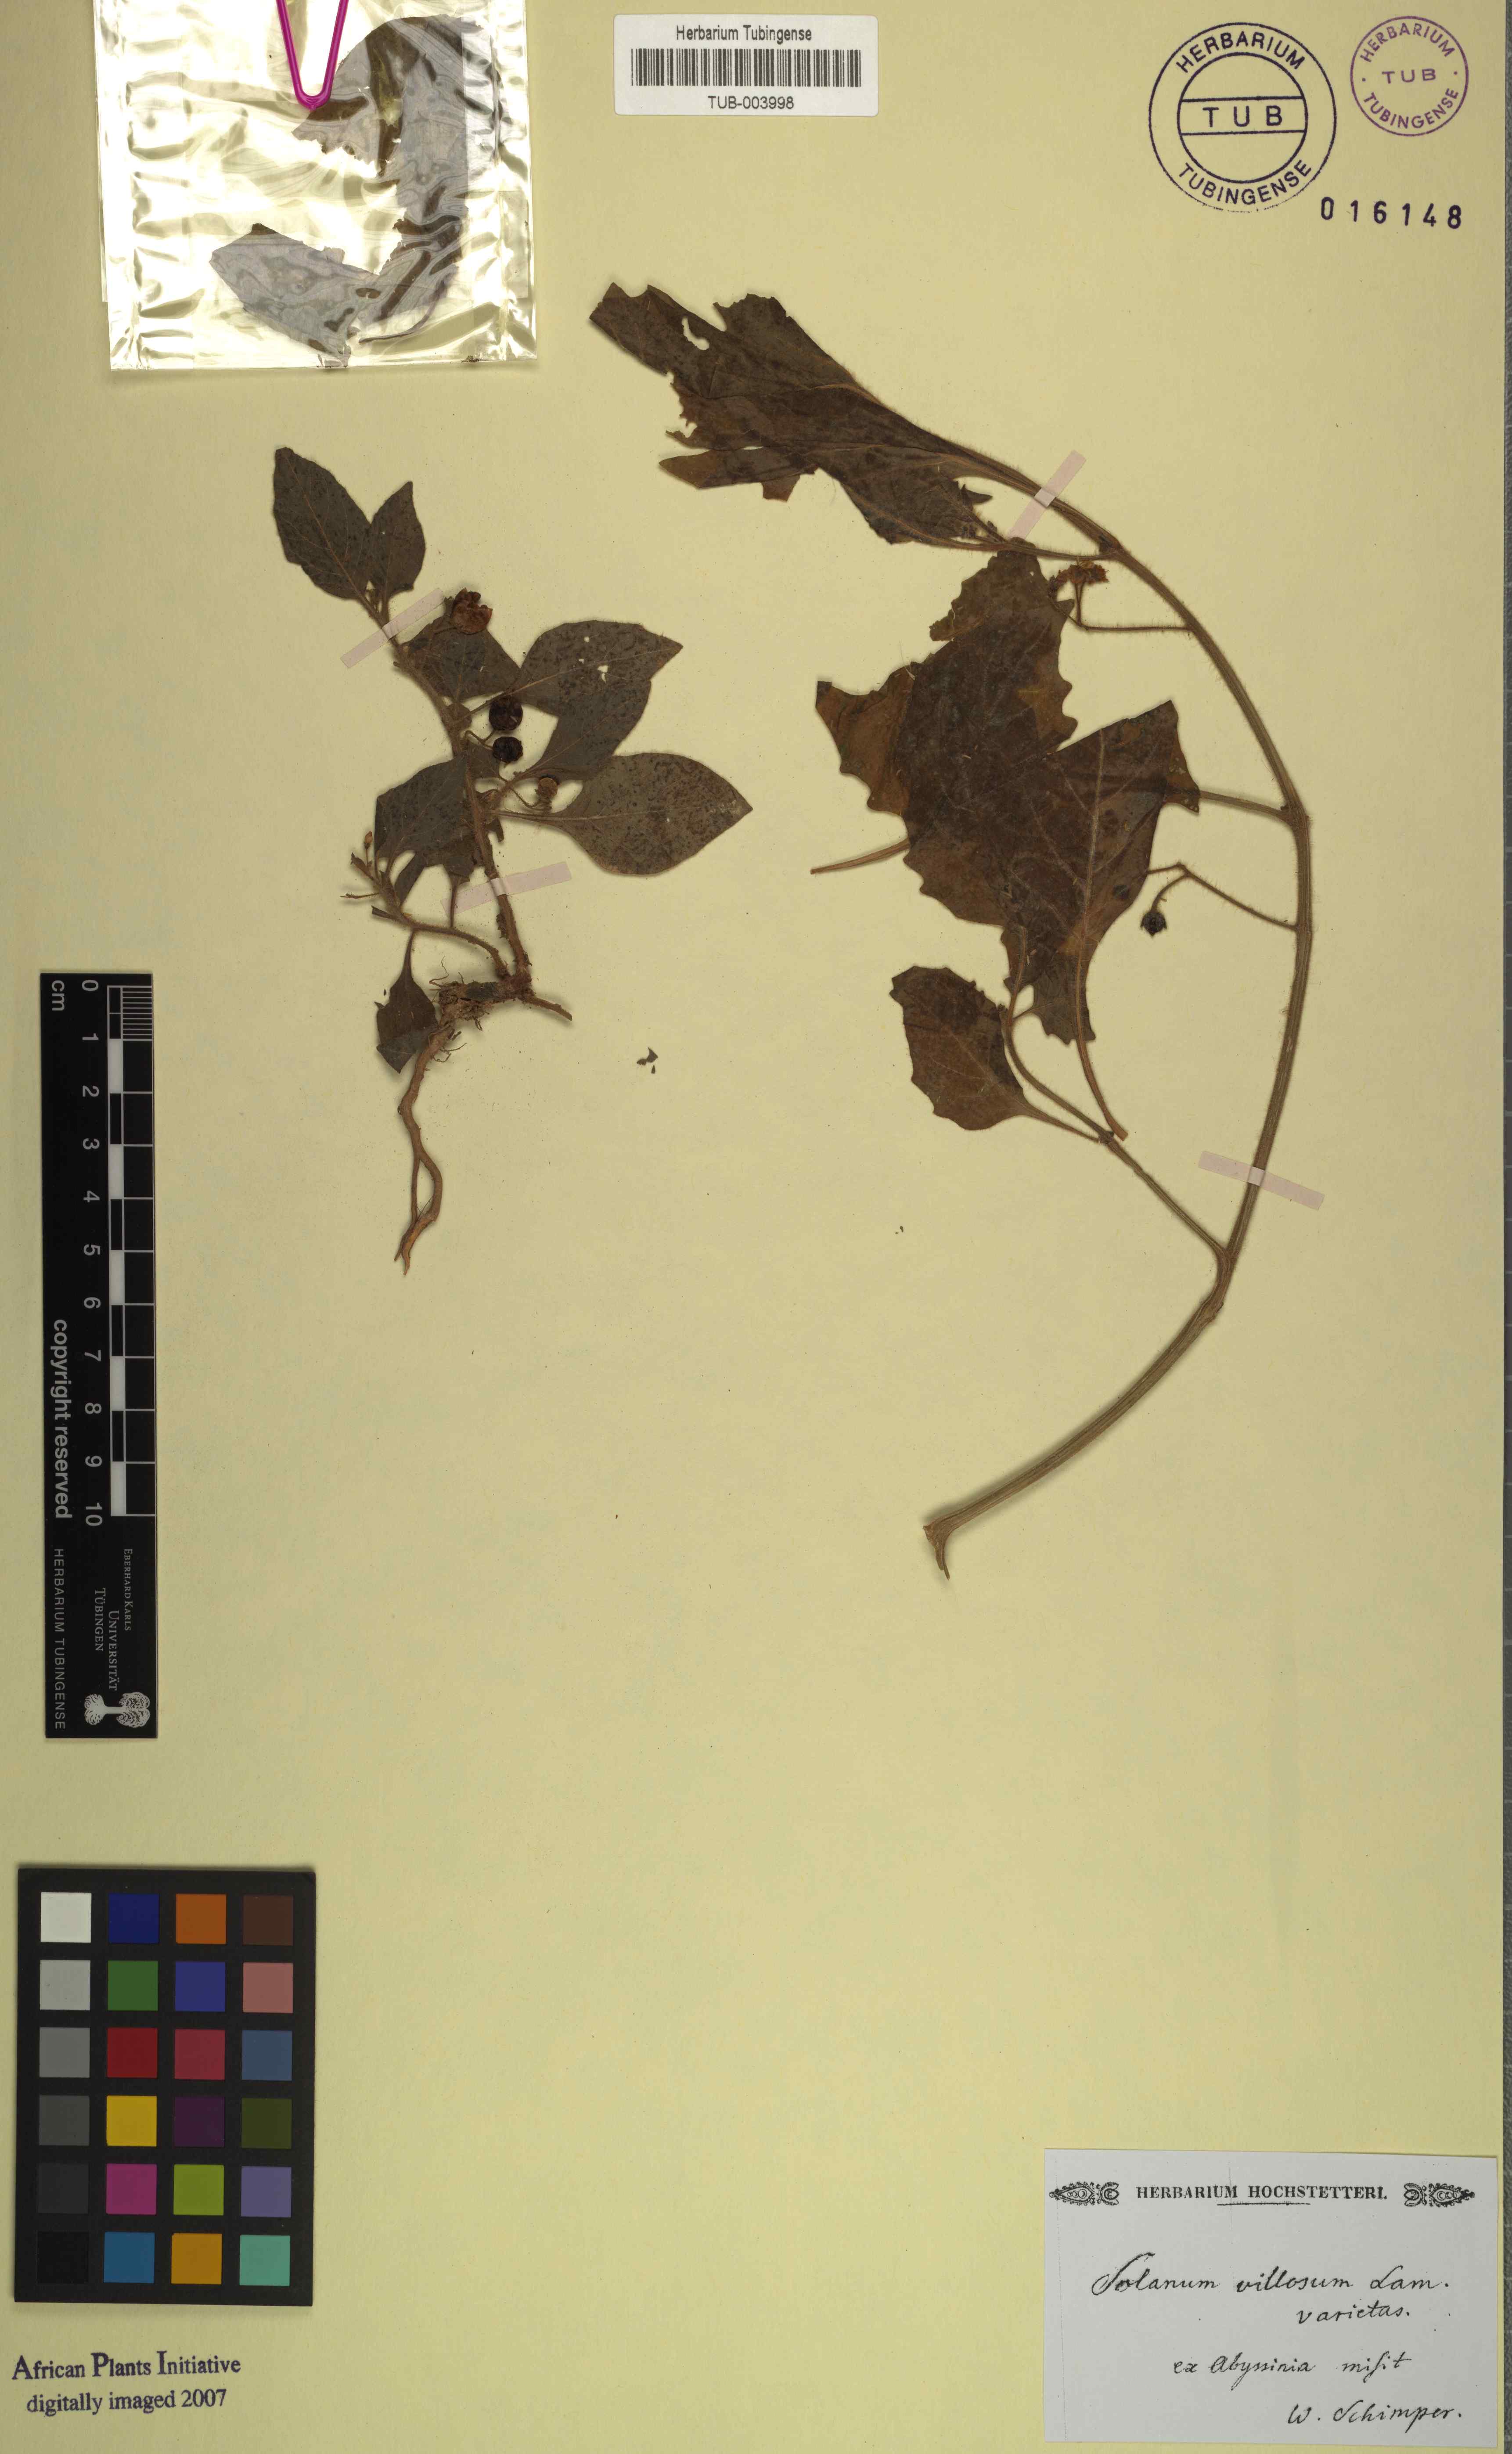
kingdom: Plantae
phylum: Tracheophyta
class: Magnoliopsida
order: Solanales
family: Solanaceae
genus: Solanum
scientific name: Solanum villosum
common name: Red nightshade
